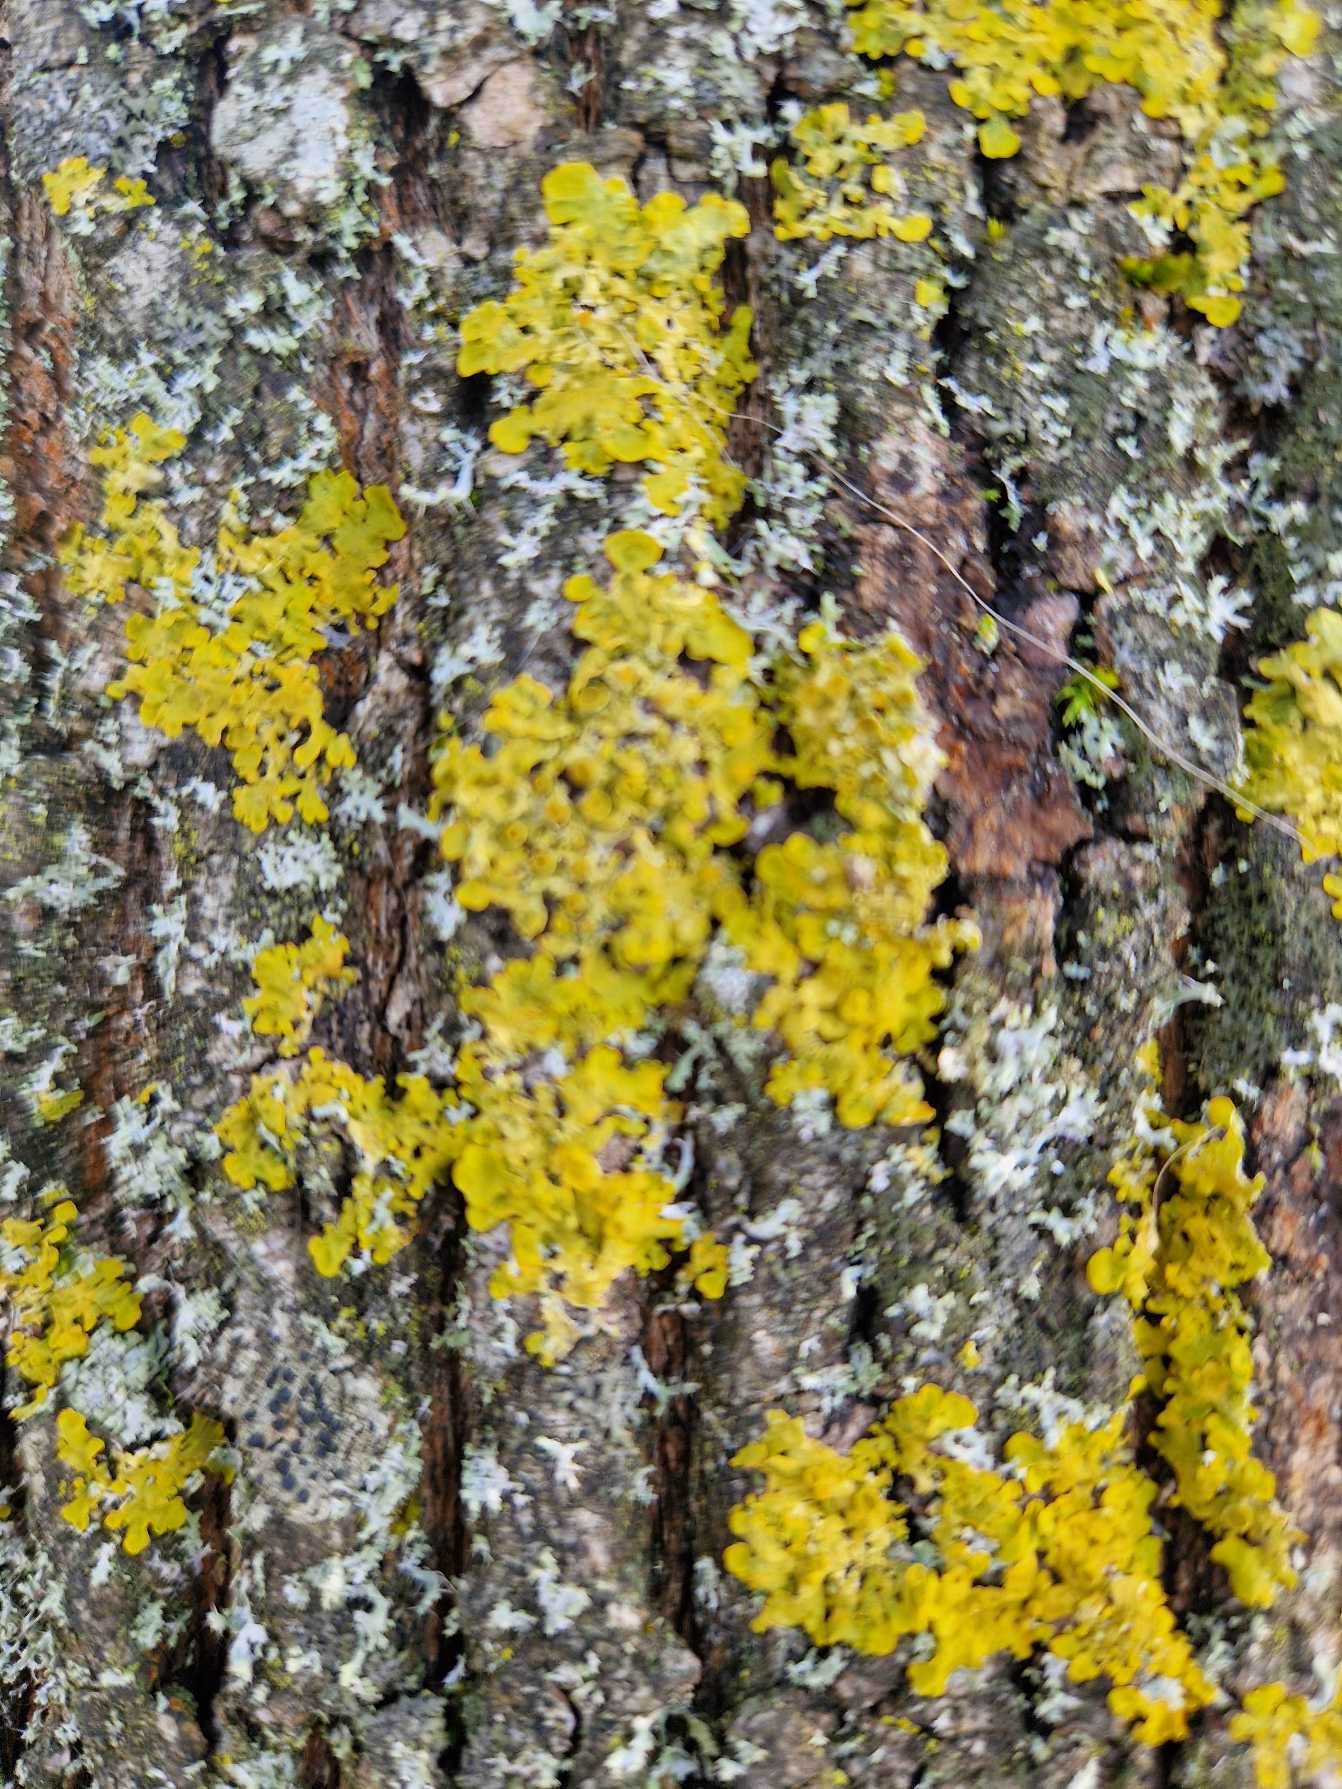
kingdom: Fungi
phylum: Ascomycota
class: Lecanoromycetes
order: Teloschistales
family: Teloschistaceae
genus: Xanthoria
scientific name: Xanthoria parietina
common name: Almindelig væggelav
